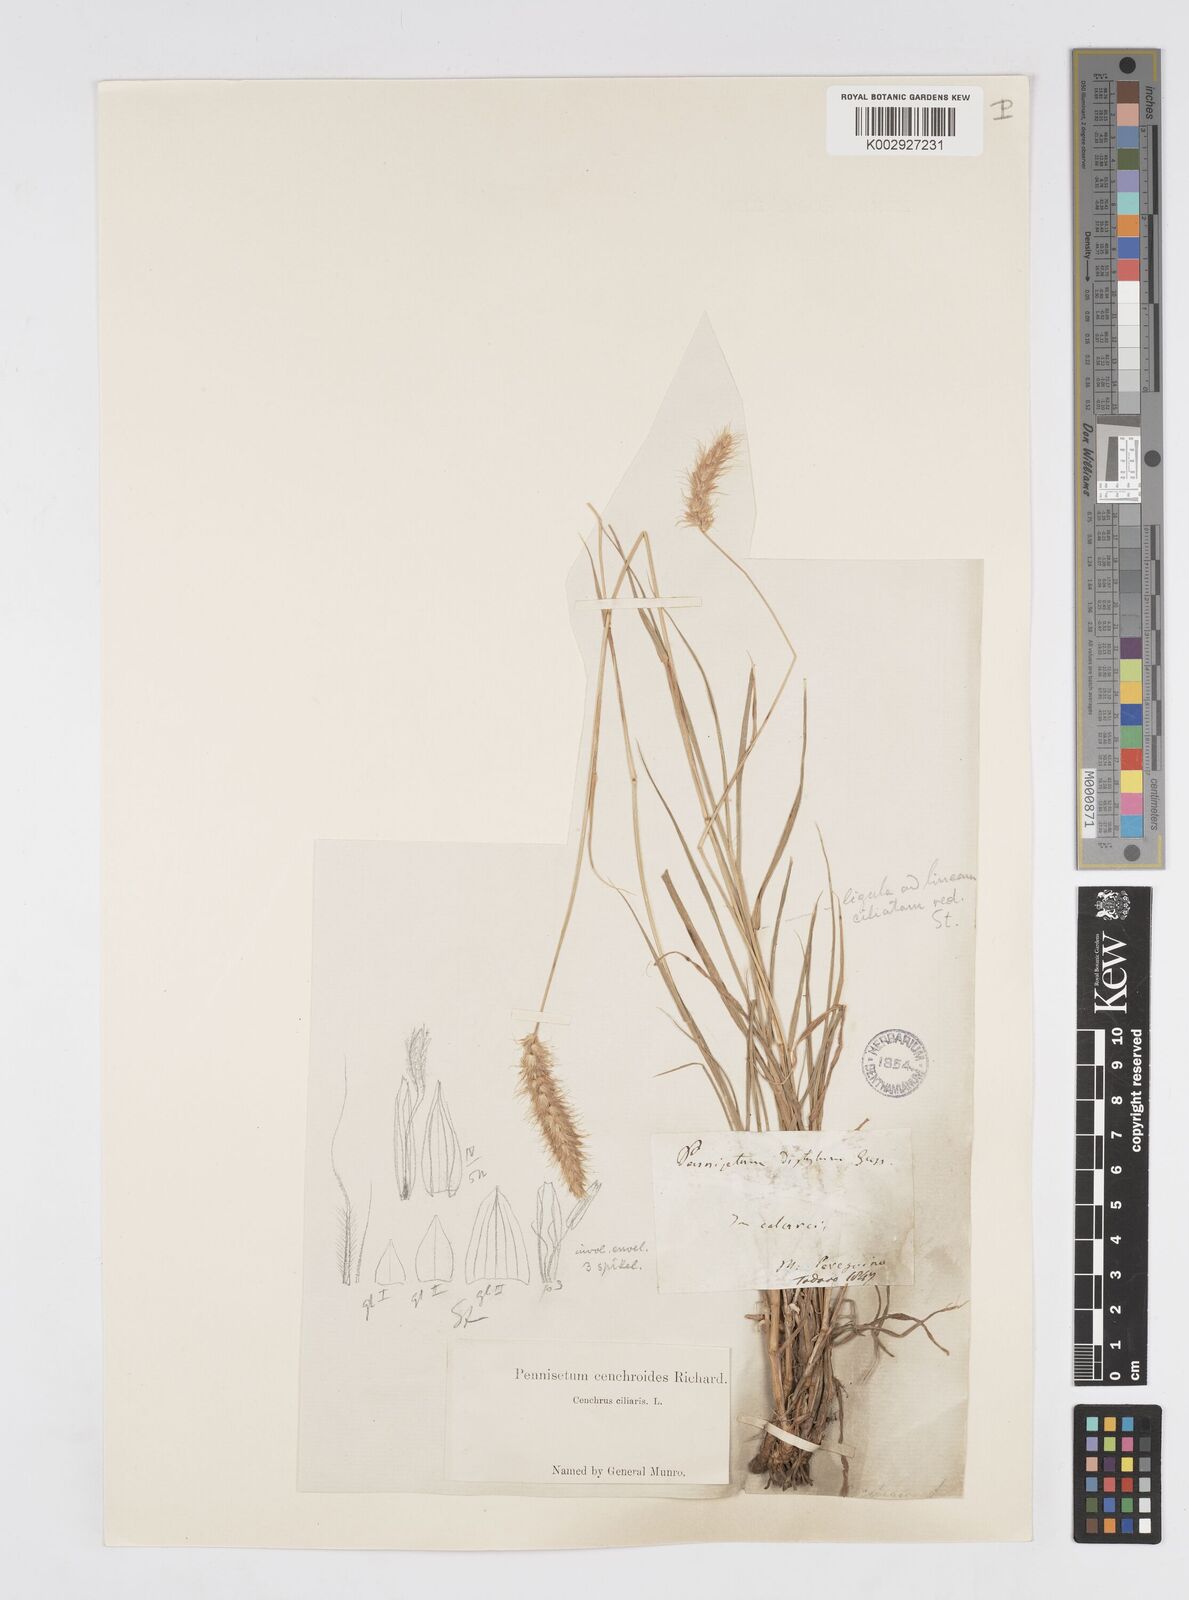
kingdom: Plantae
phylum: Tracheophyta
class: Liliopsida
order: Poales
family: Poaceae
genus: Cenchrus
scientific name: Cenchrus ciliaris
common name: Buffelgrass
